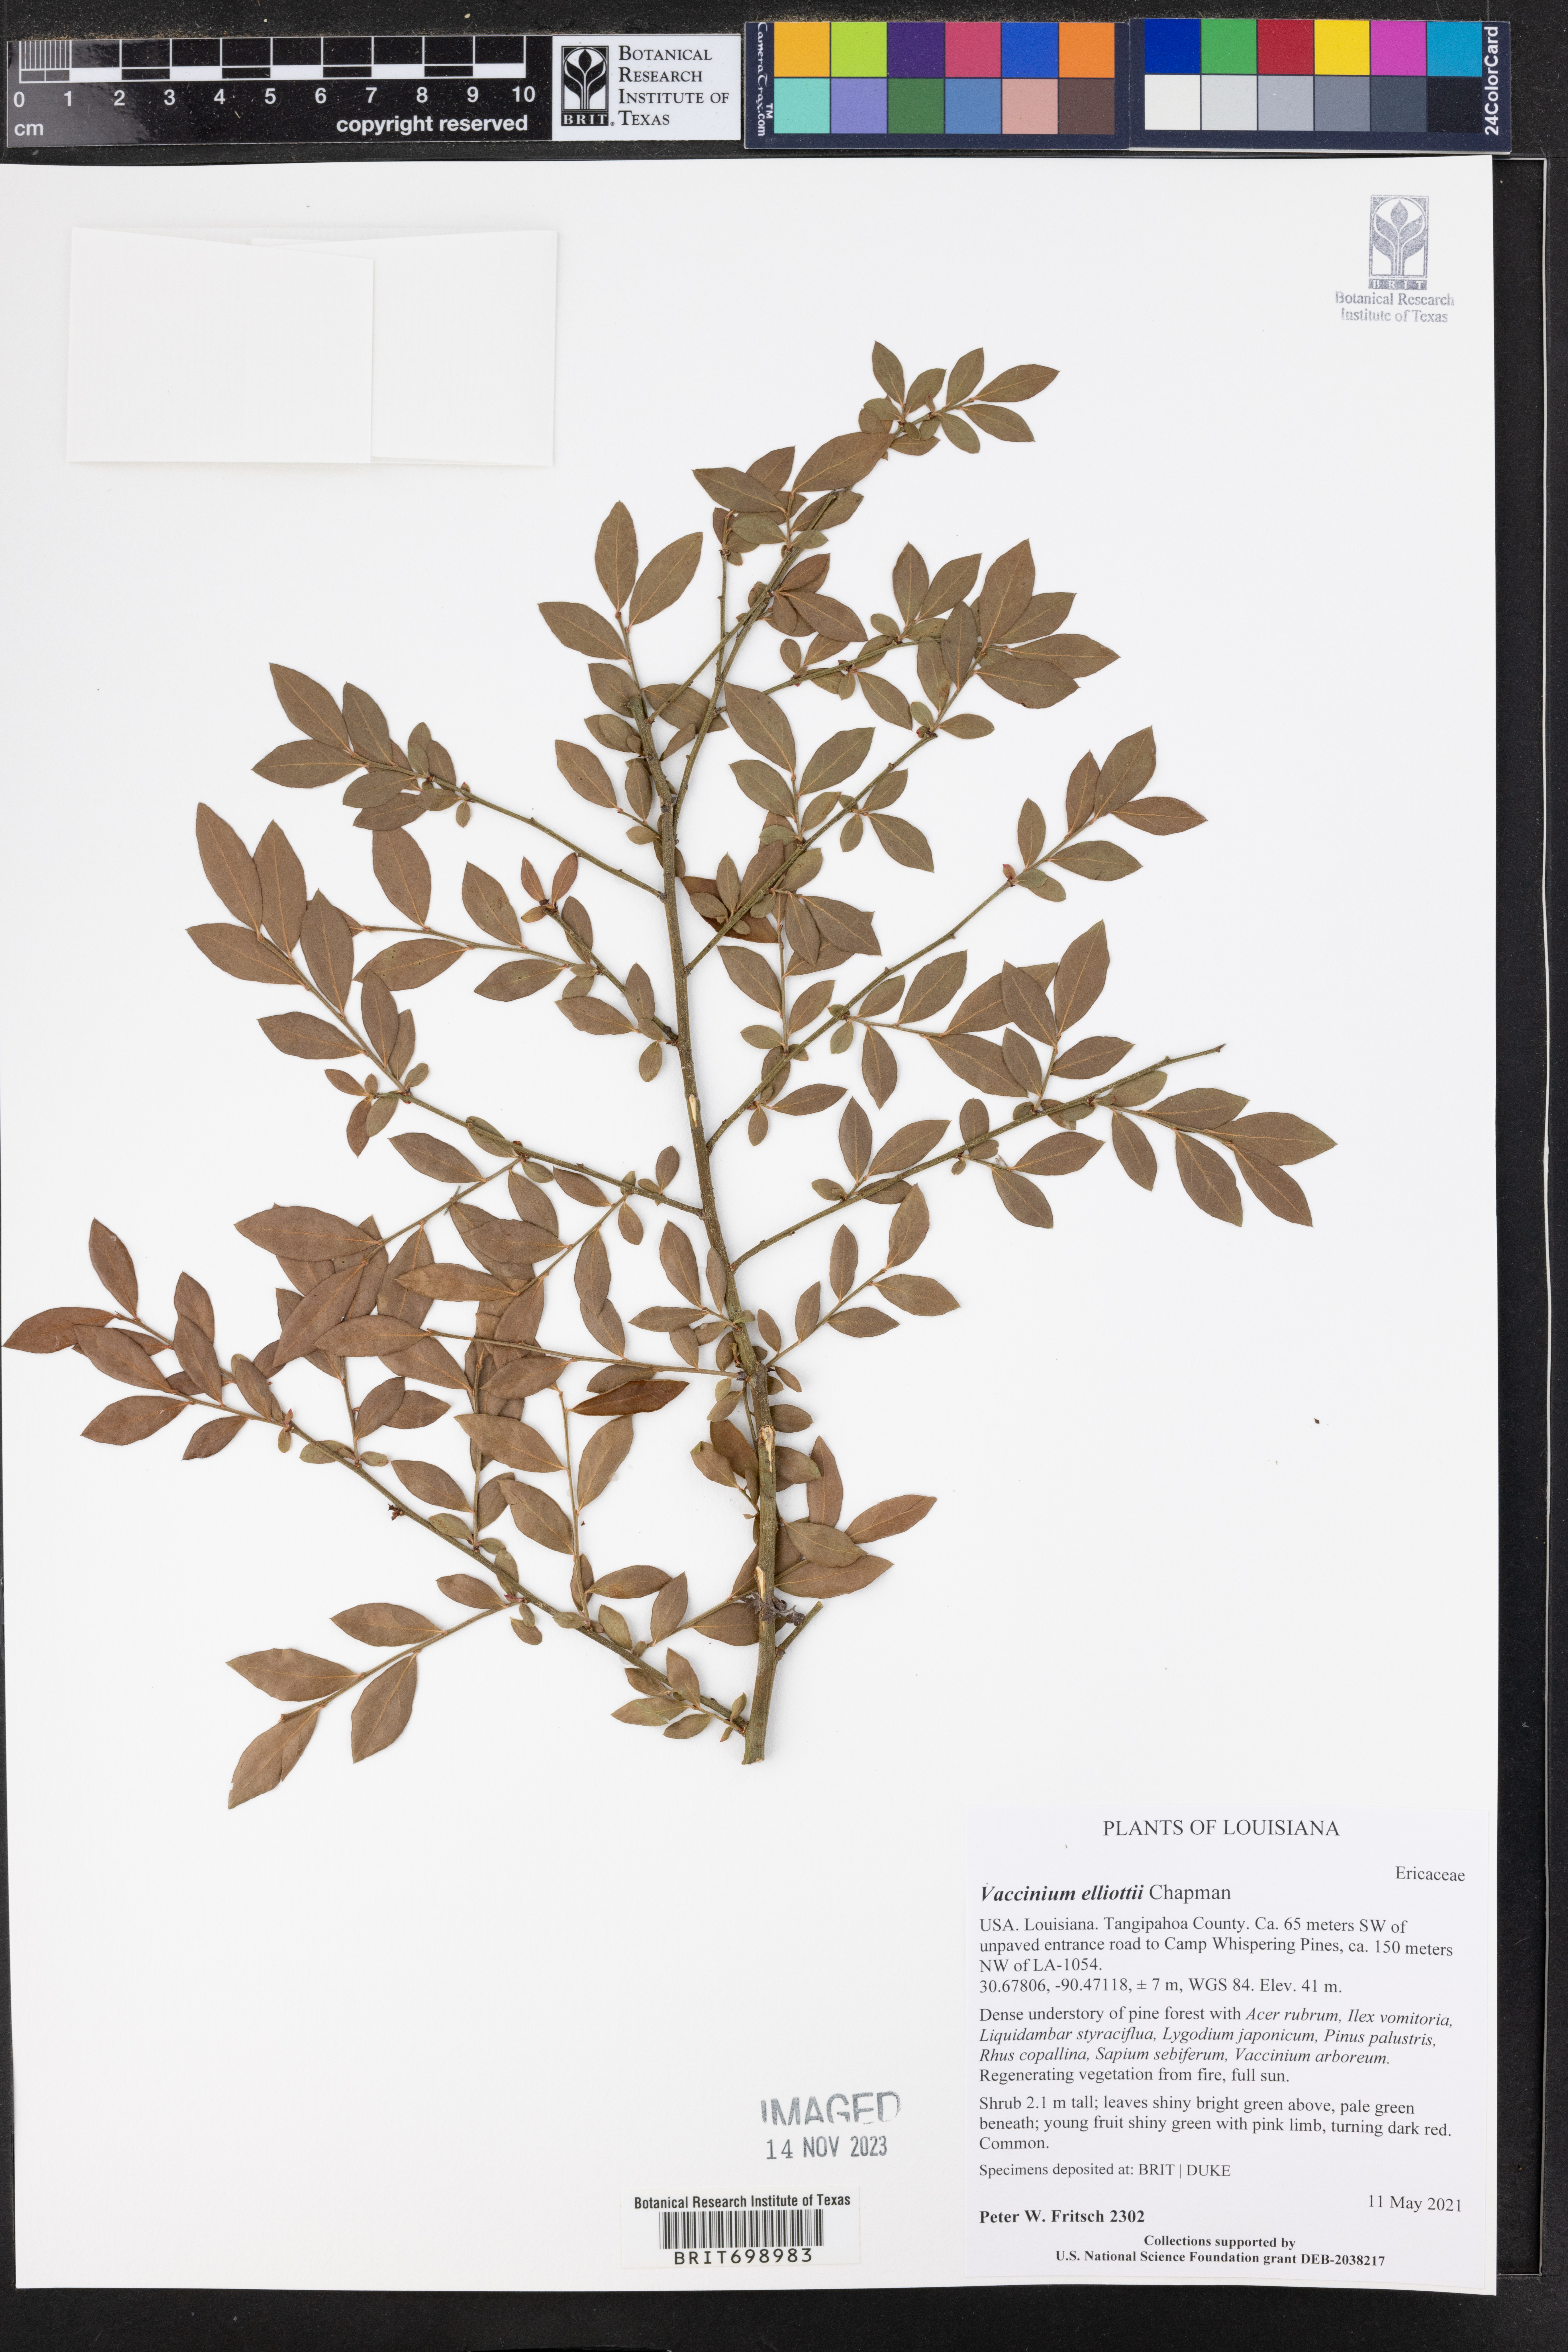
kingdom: Plantae
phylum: Tracheophyta
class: Magnoliopsida
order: Ericales
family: Ericaceae
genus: Vaccinium
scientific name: Vaccinium corymbosum
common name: Blueberry
